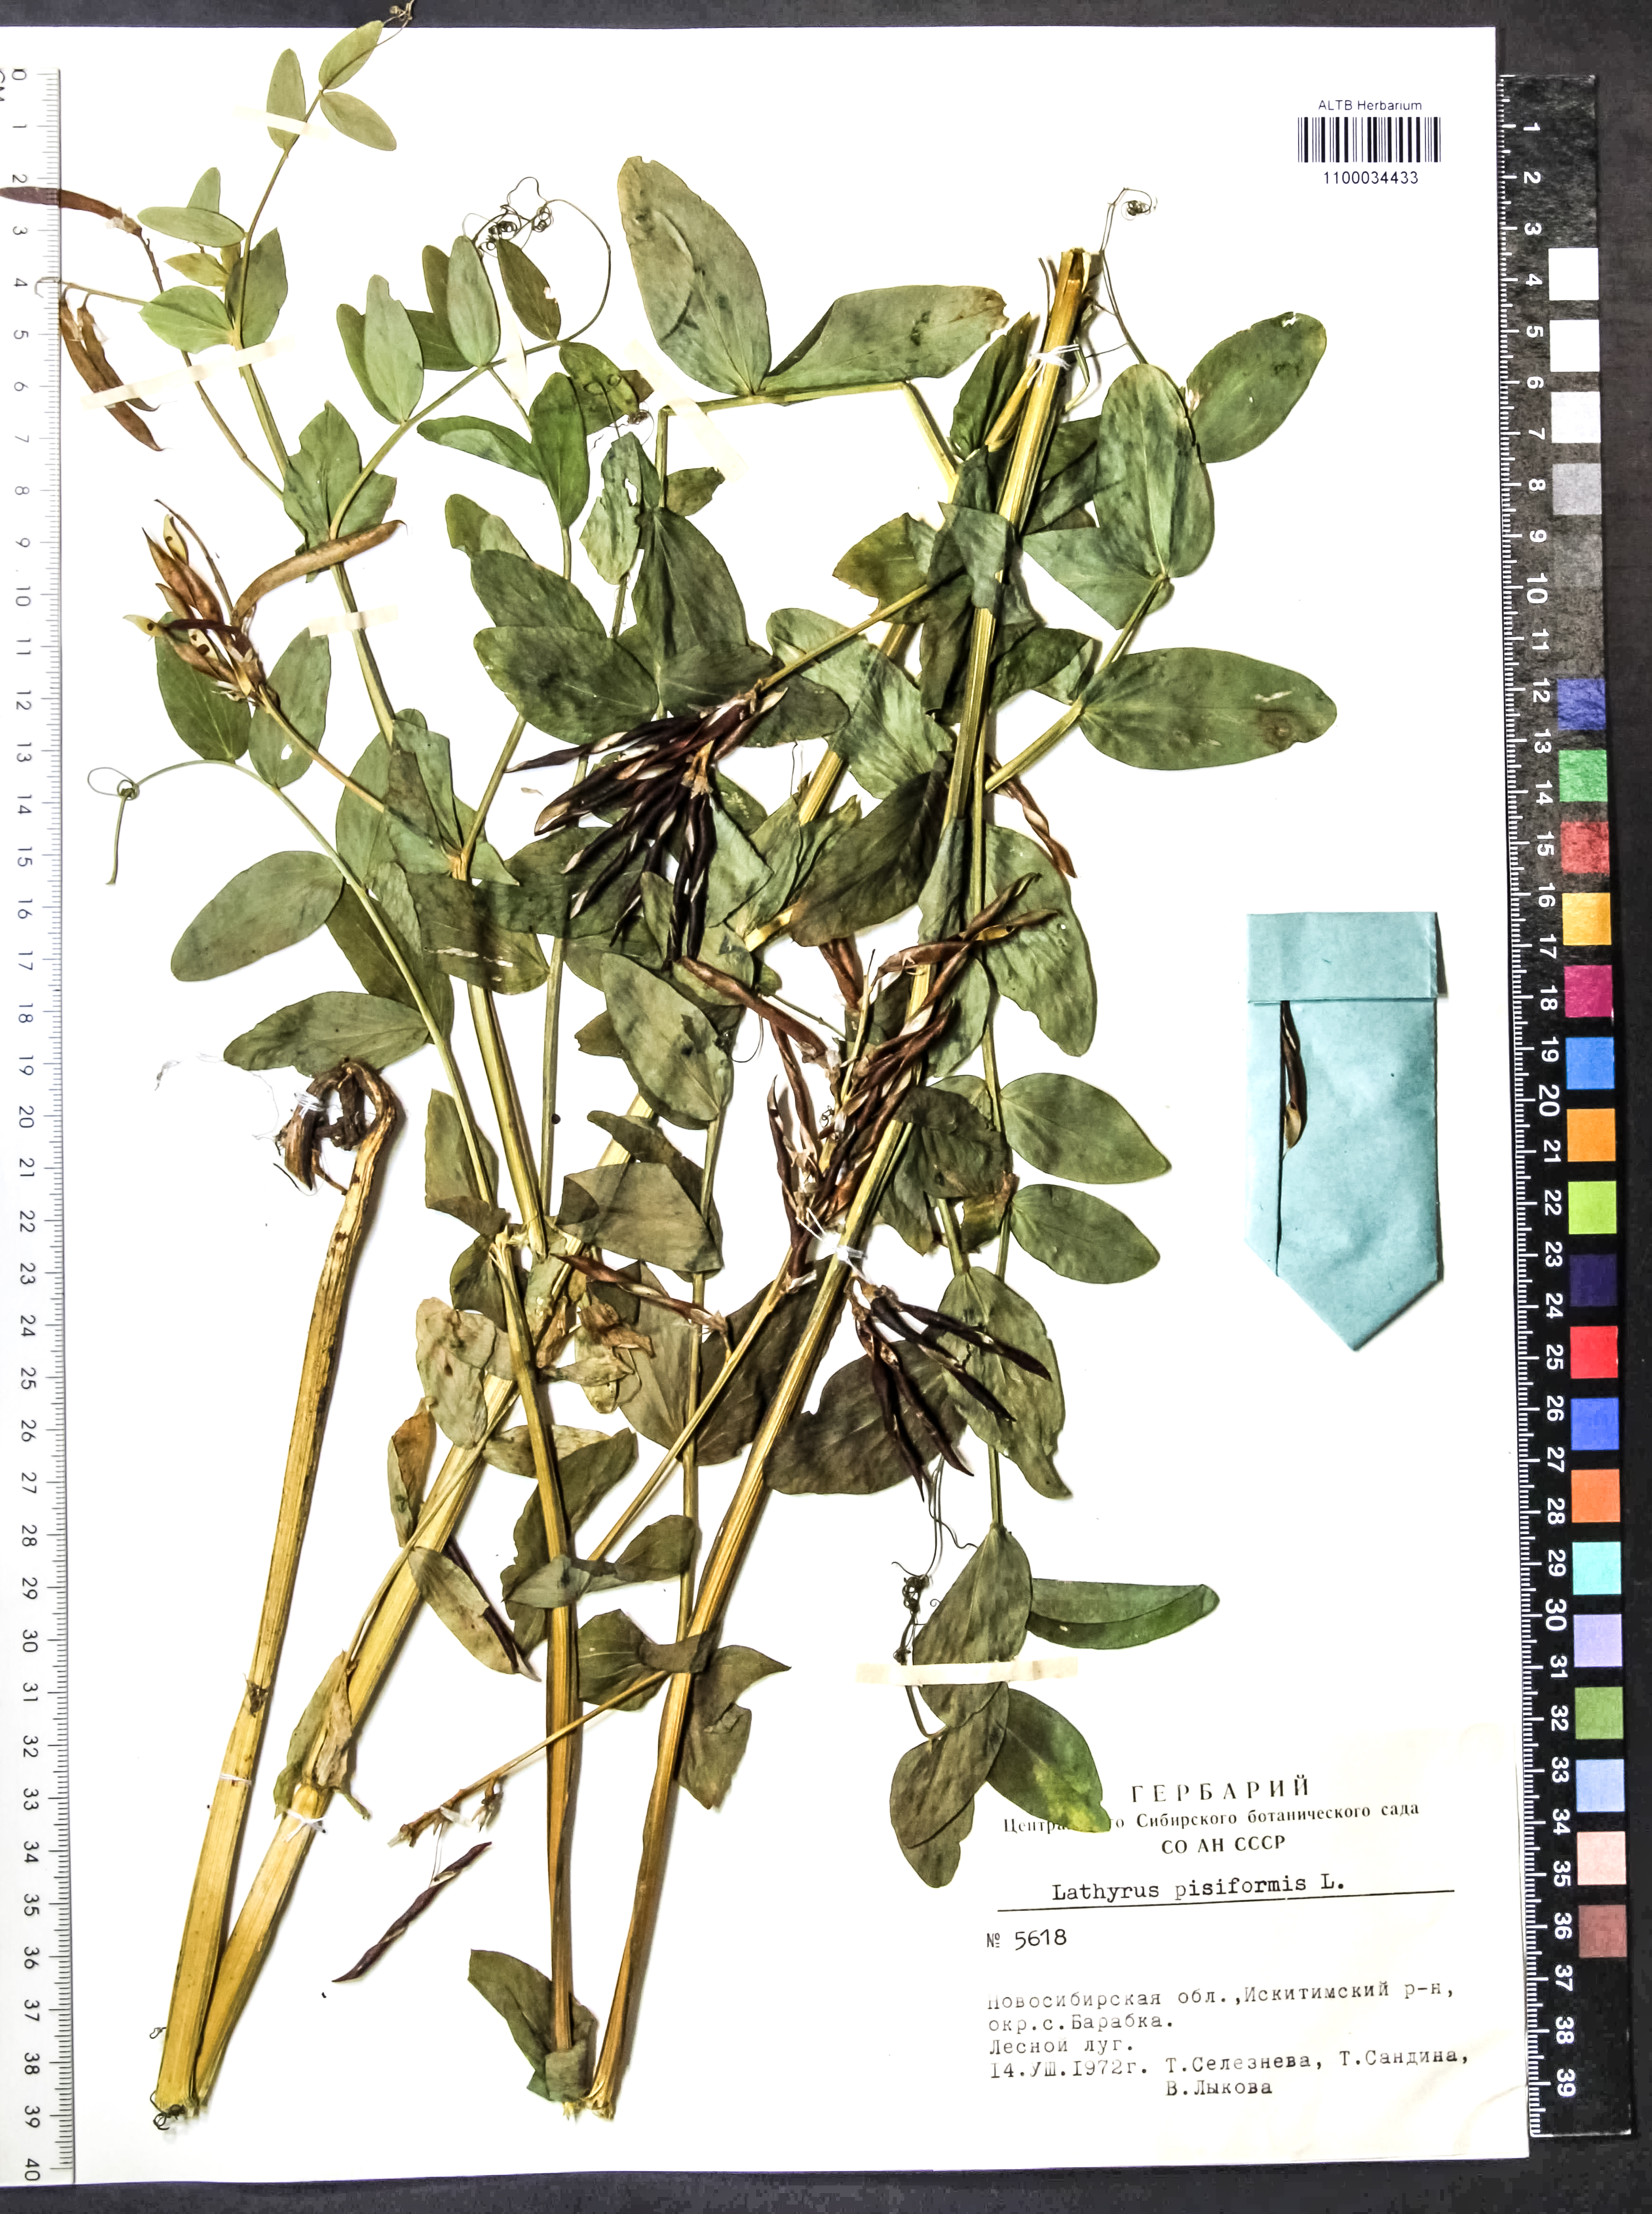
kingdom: Plantae
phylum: Tracheophyta
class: Magnoliopsida
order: Fabales
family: Fabaceae
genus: Lathyrus
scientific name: Lathyrus pisiformis
